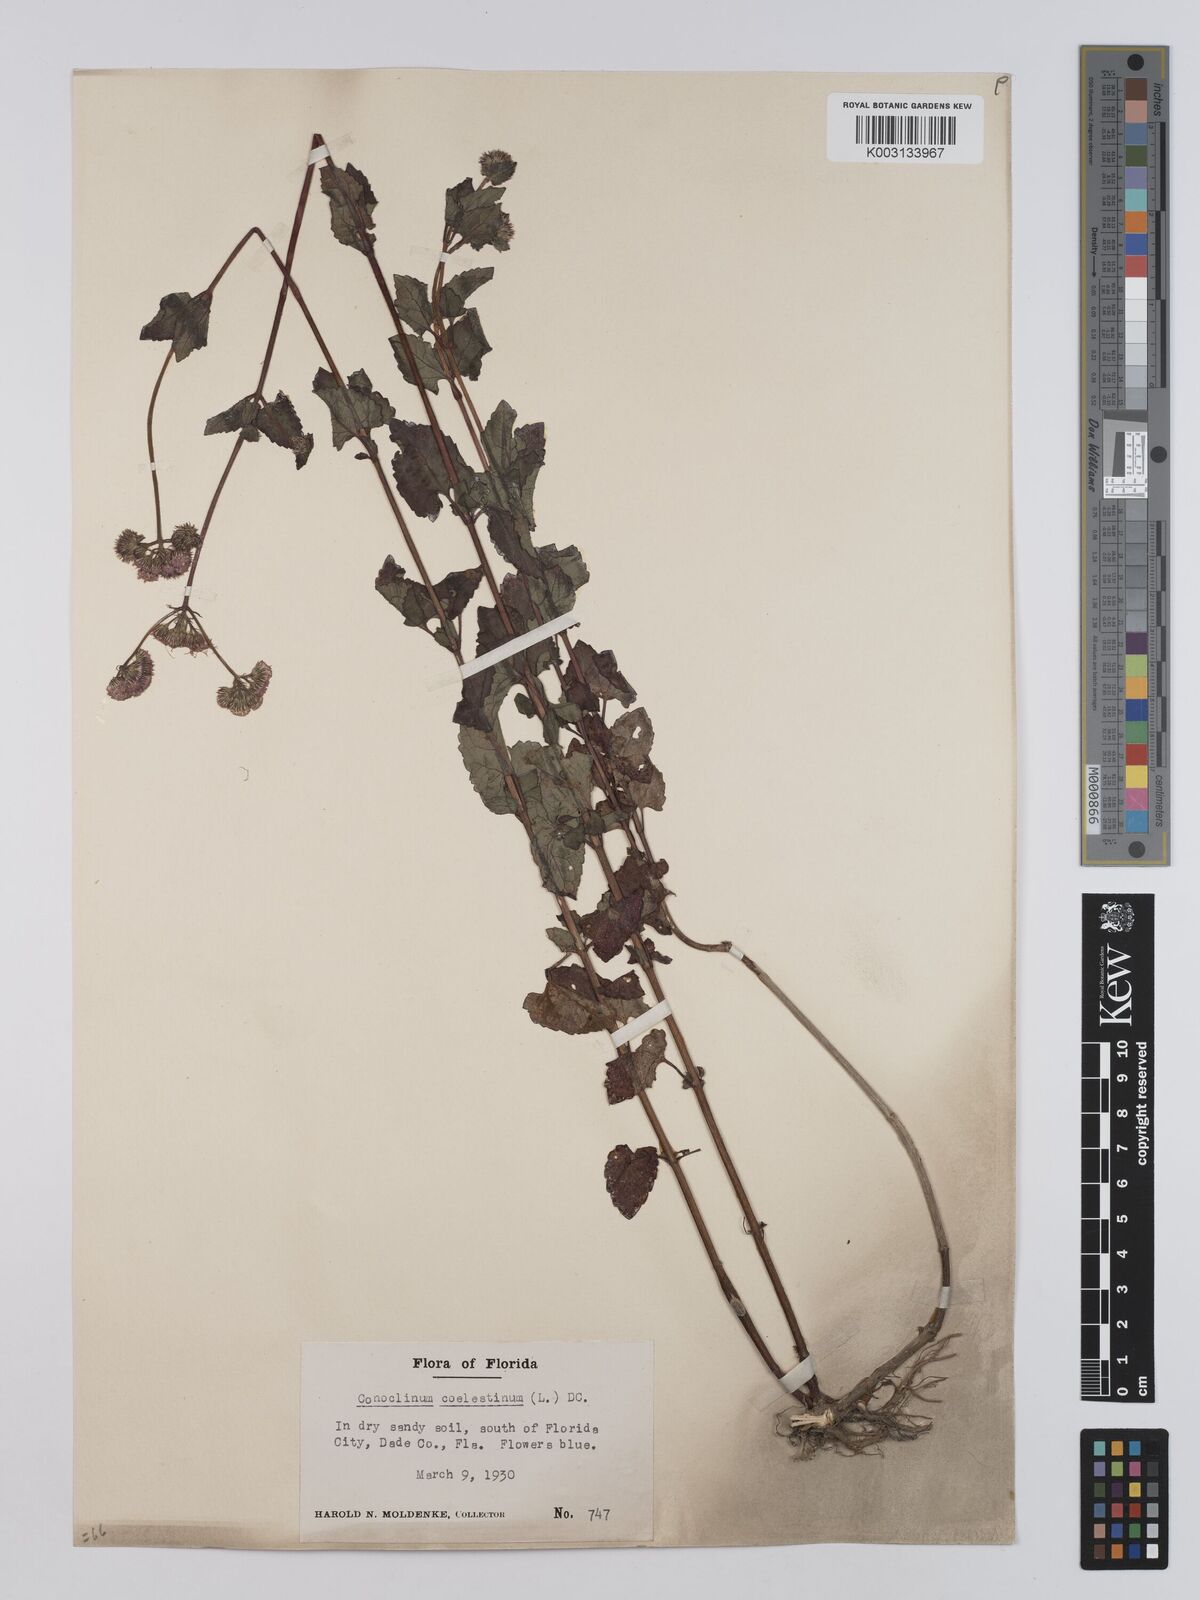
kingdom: Plantae
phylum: Tracheophyta
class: Magnoliopsida
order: Asterales
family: Asteraceae
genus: Conoclinium
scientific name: Conoclinium coelestinum
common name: Blue mistflower
